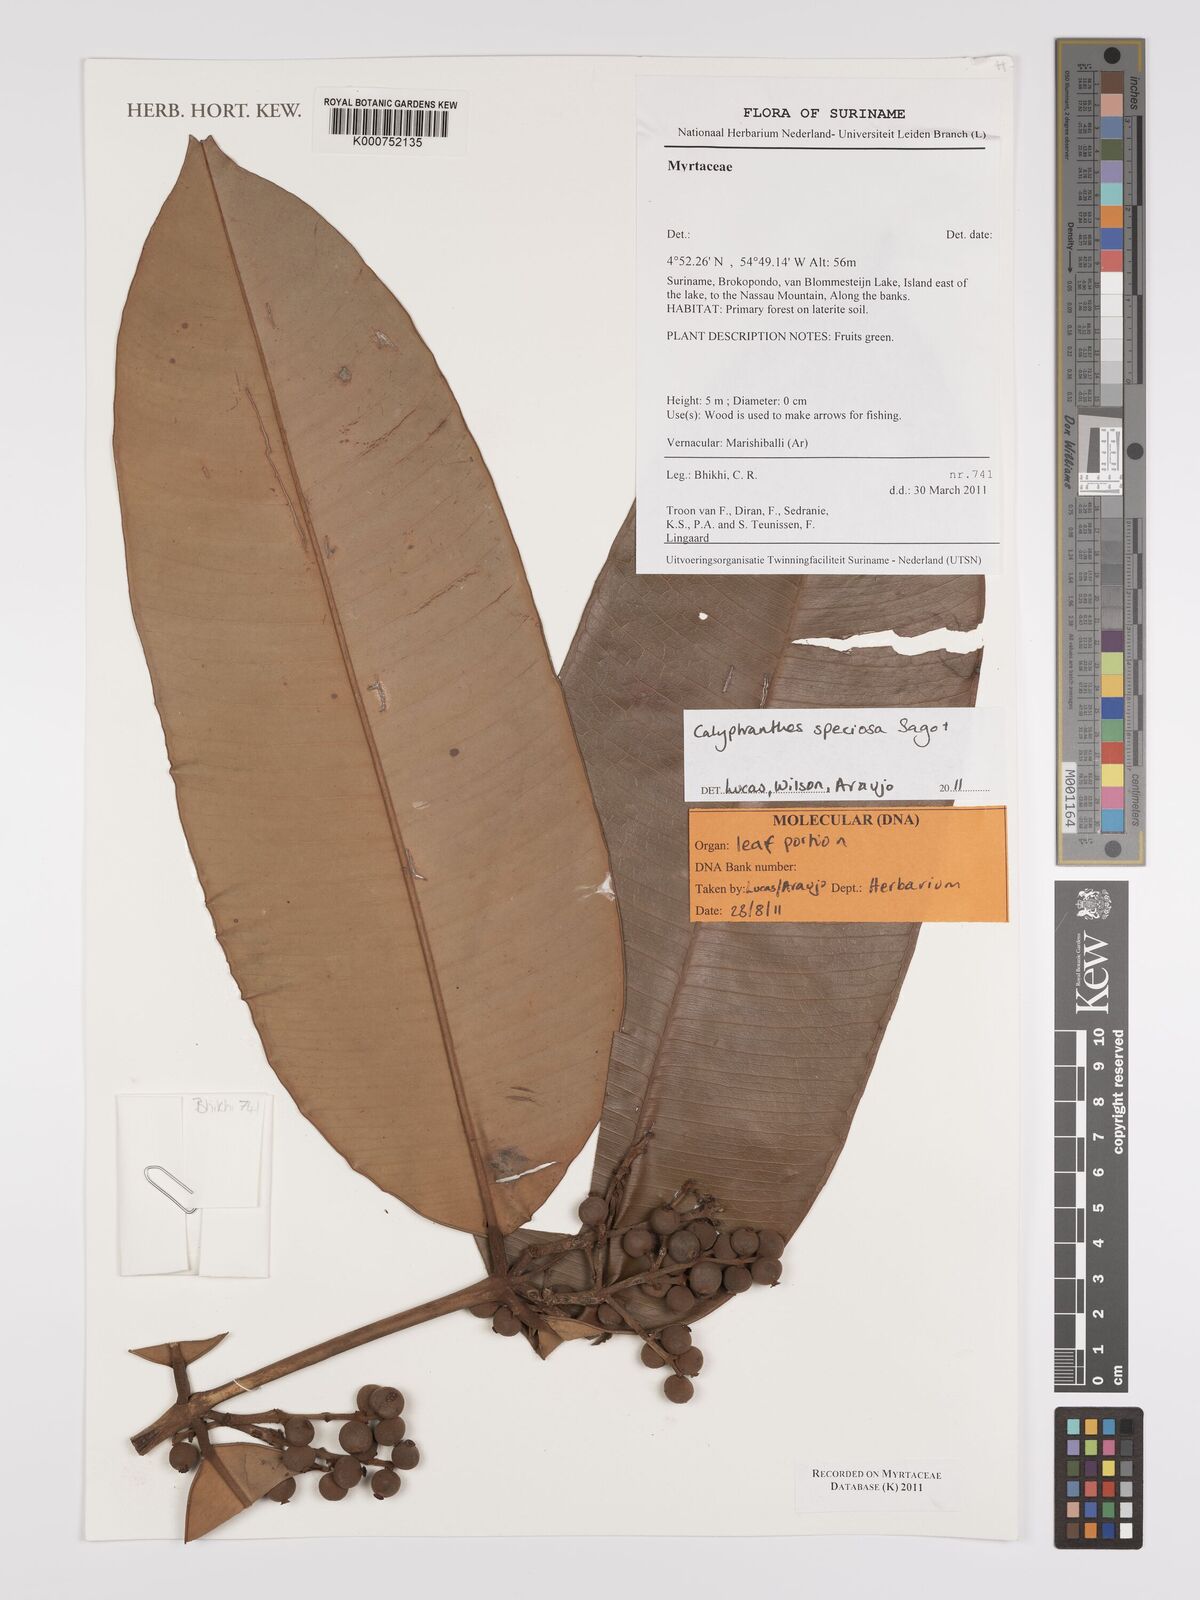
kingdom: Plantae
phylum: Tracheophyta
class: Magnoliopsida
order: Myrtales
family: Myrtaceae
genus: Myrcia
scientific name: Myrcia neospeciosa
